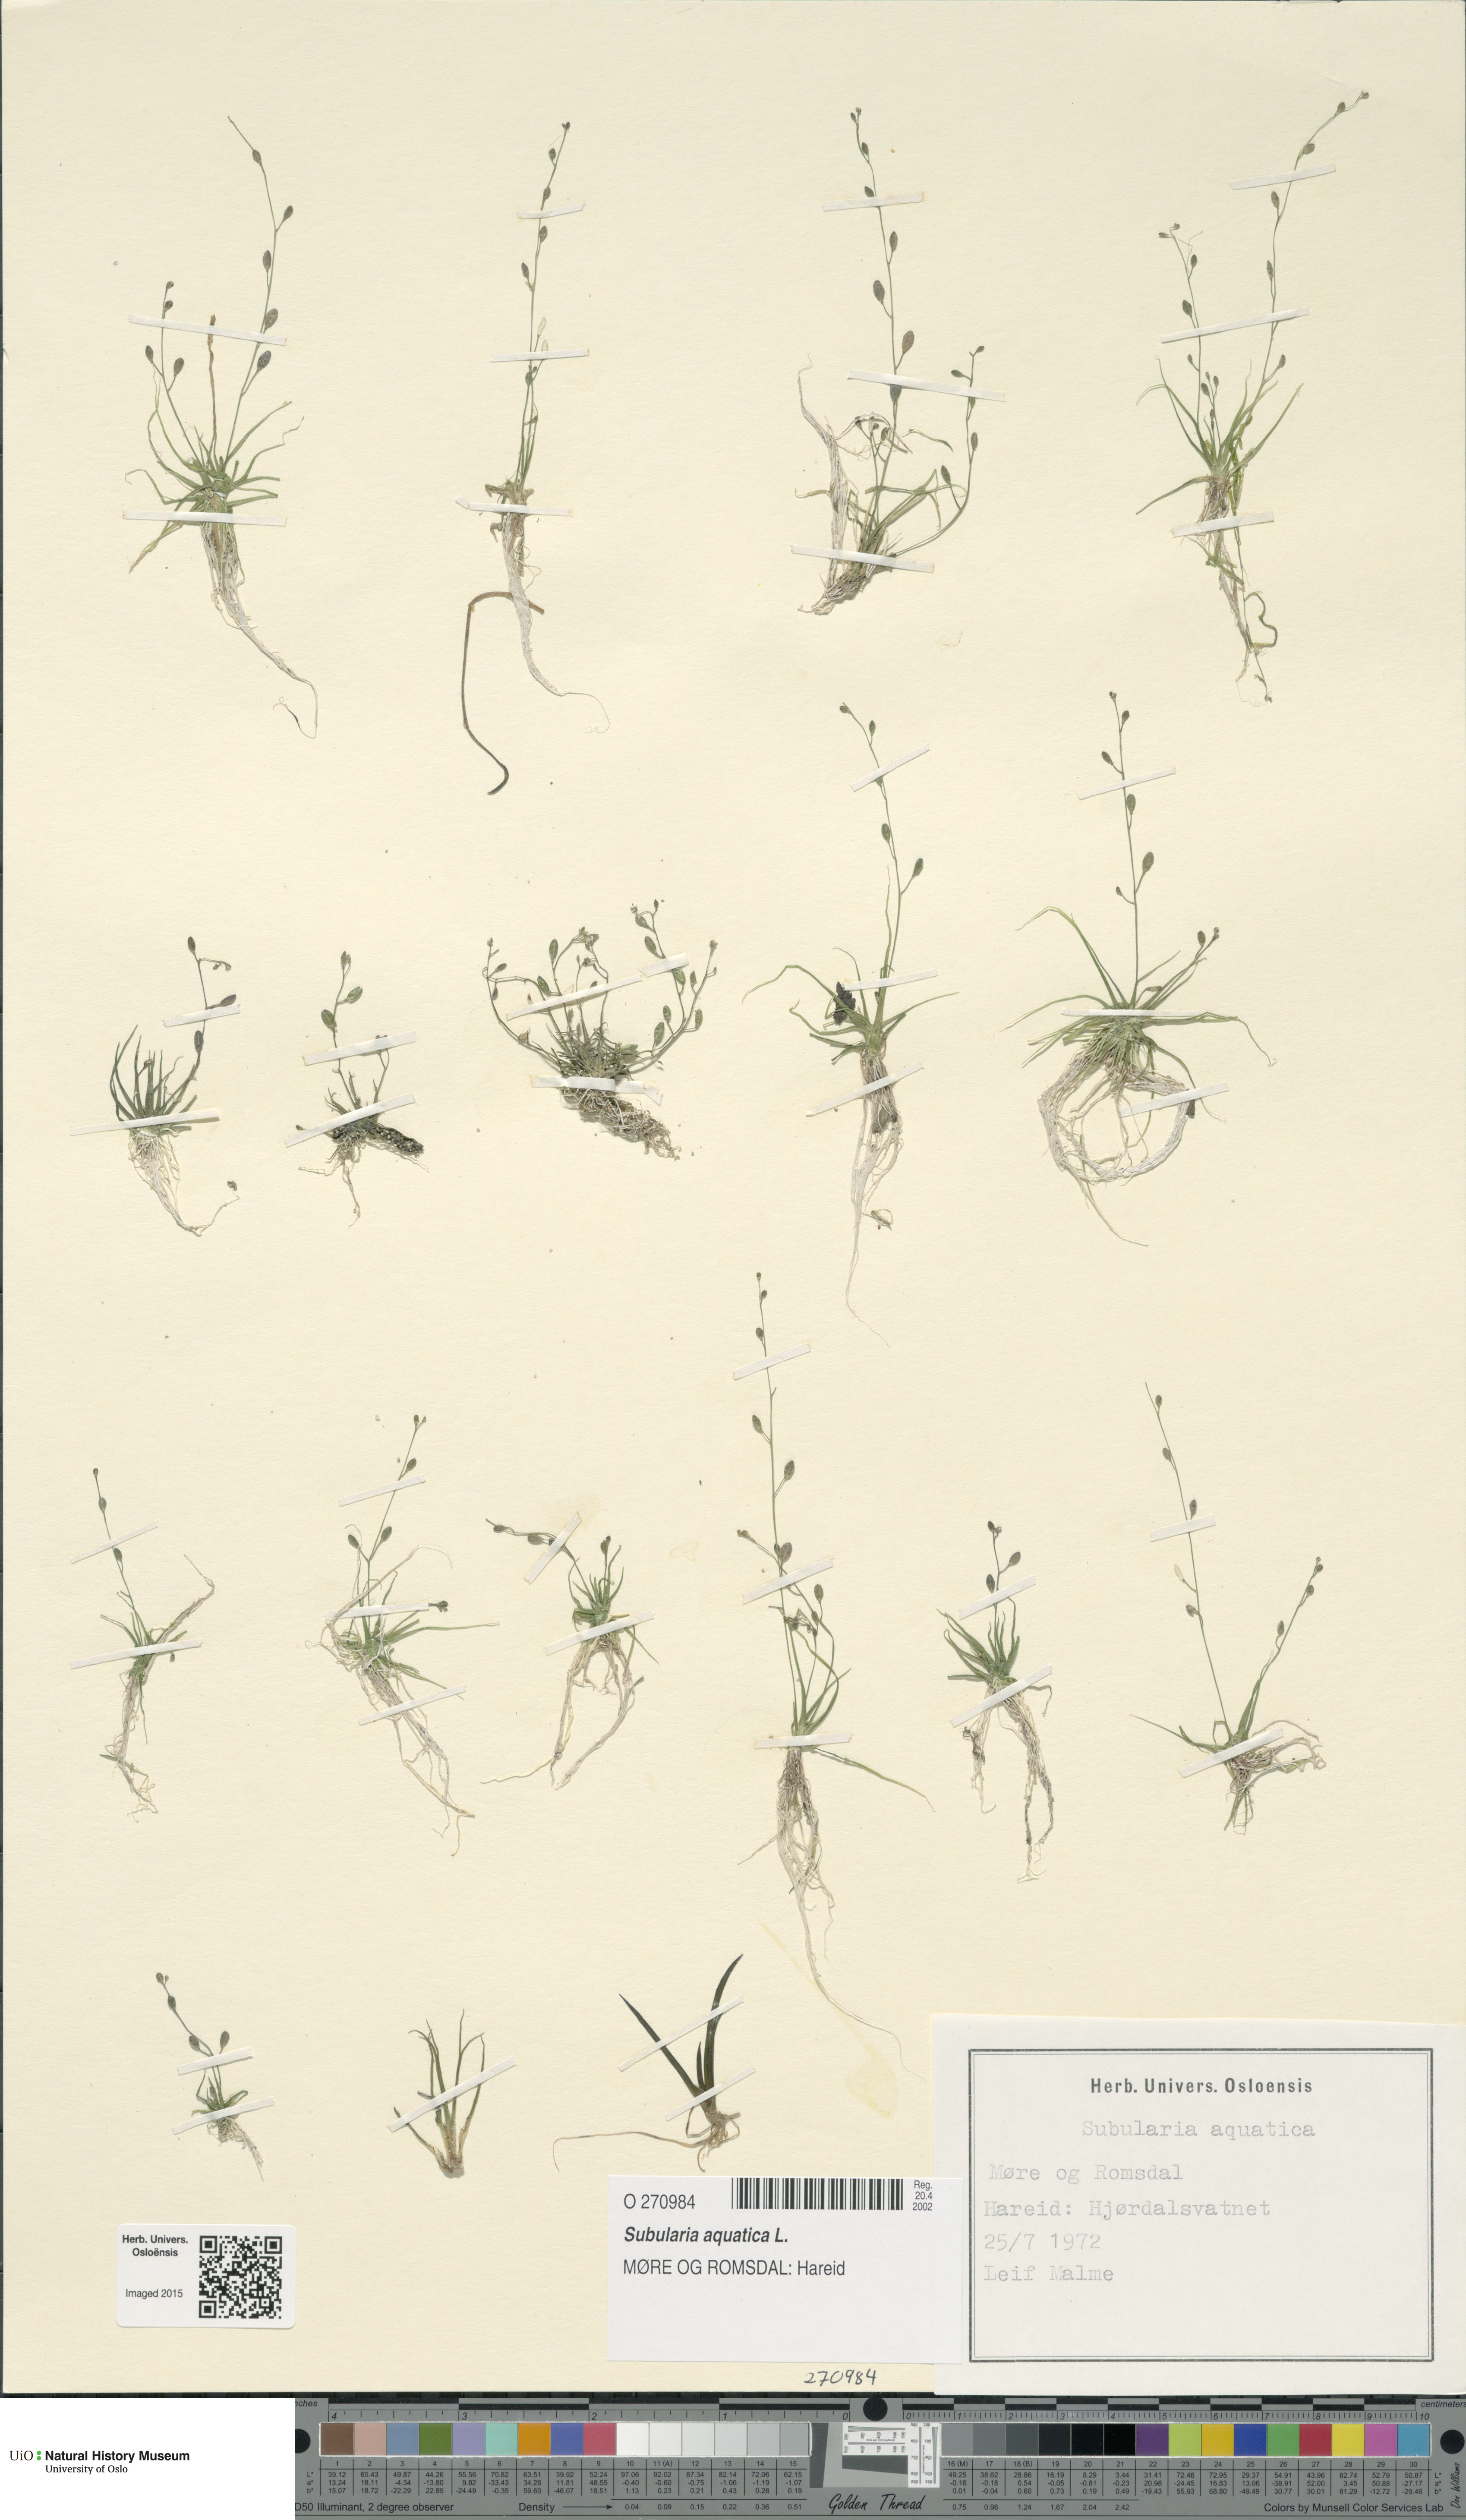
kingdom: Plantae
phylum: Tracheophyta
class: Magnoliopsida
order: Brassicales
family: Brassicaceae
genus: Subularia
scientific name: Subularia aquatica
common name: Awlwort
